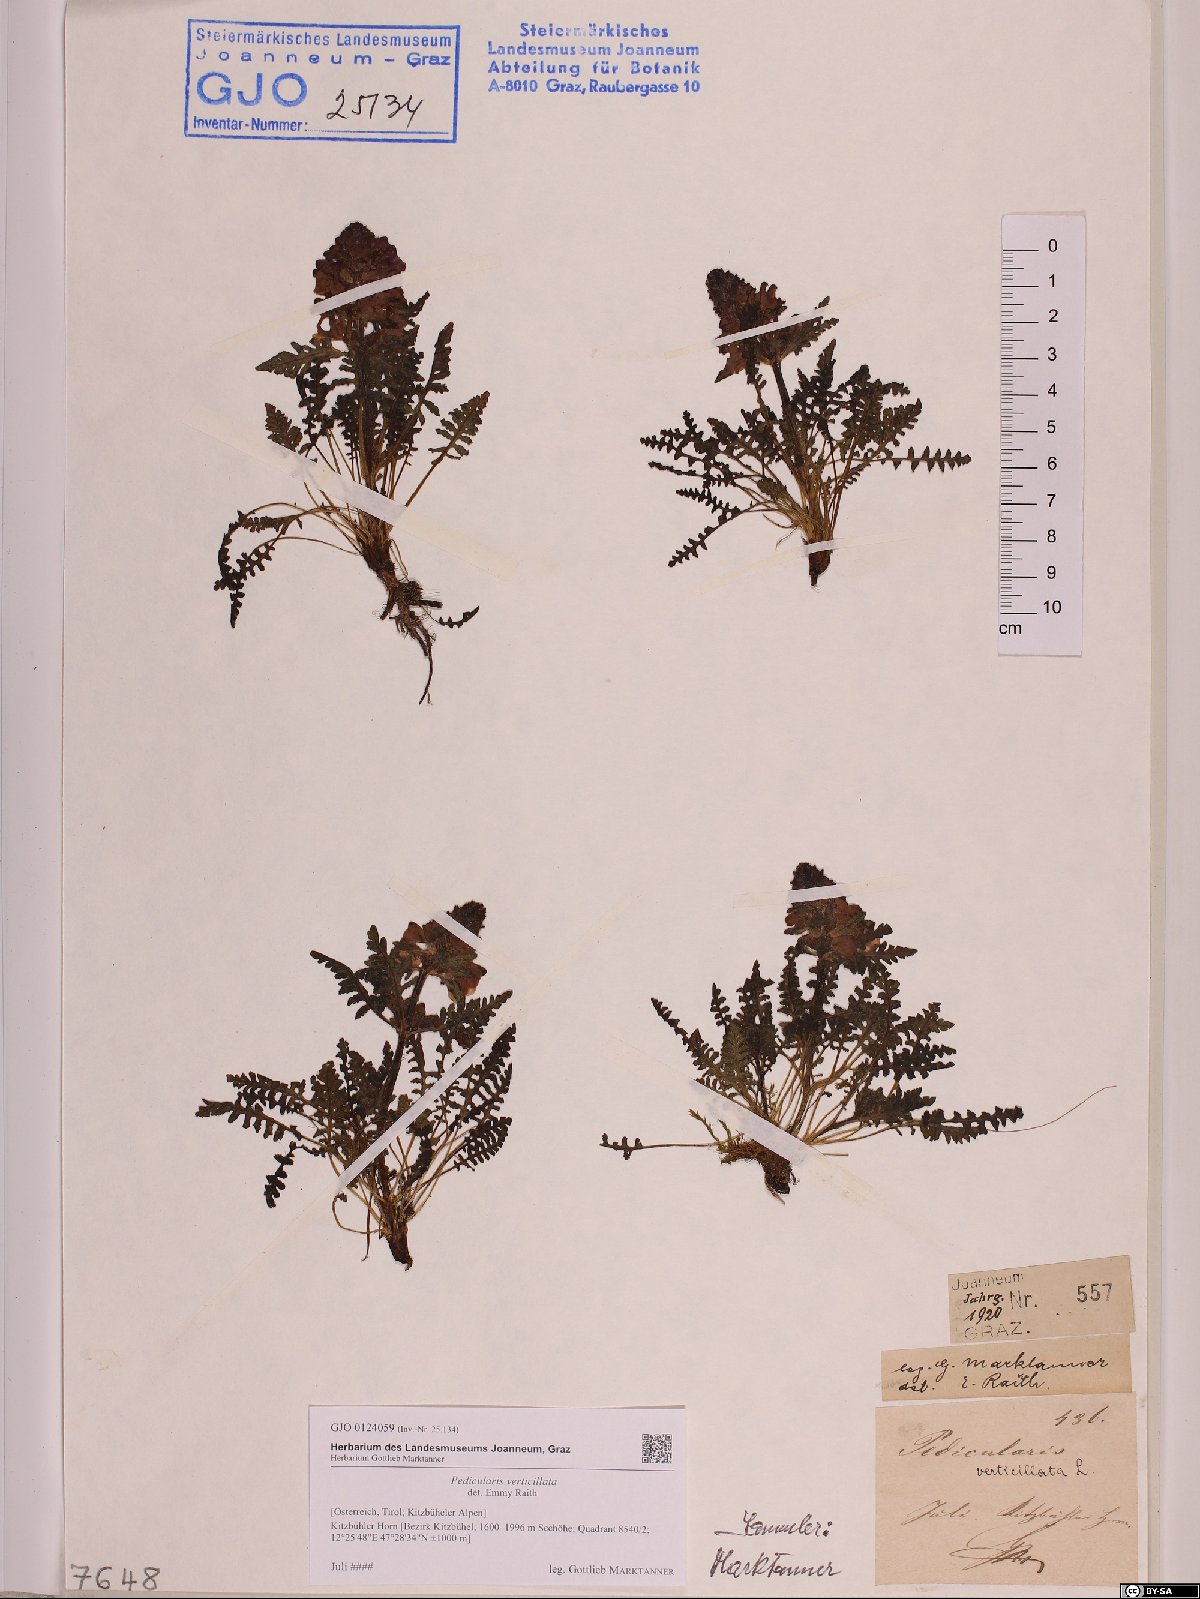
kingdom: Plantae
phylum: Tracheophyta
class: Magnoliopsida
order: Lamiales
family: Orobanchaceae
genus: Pedicularis
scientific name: Pedicularis verticillata
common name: Whorled lousewort
